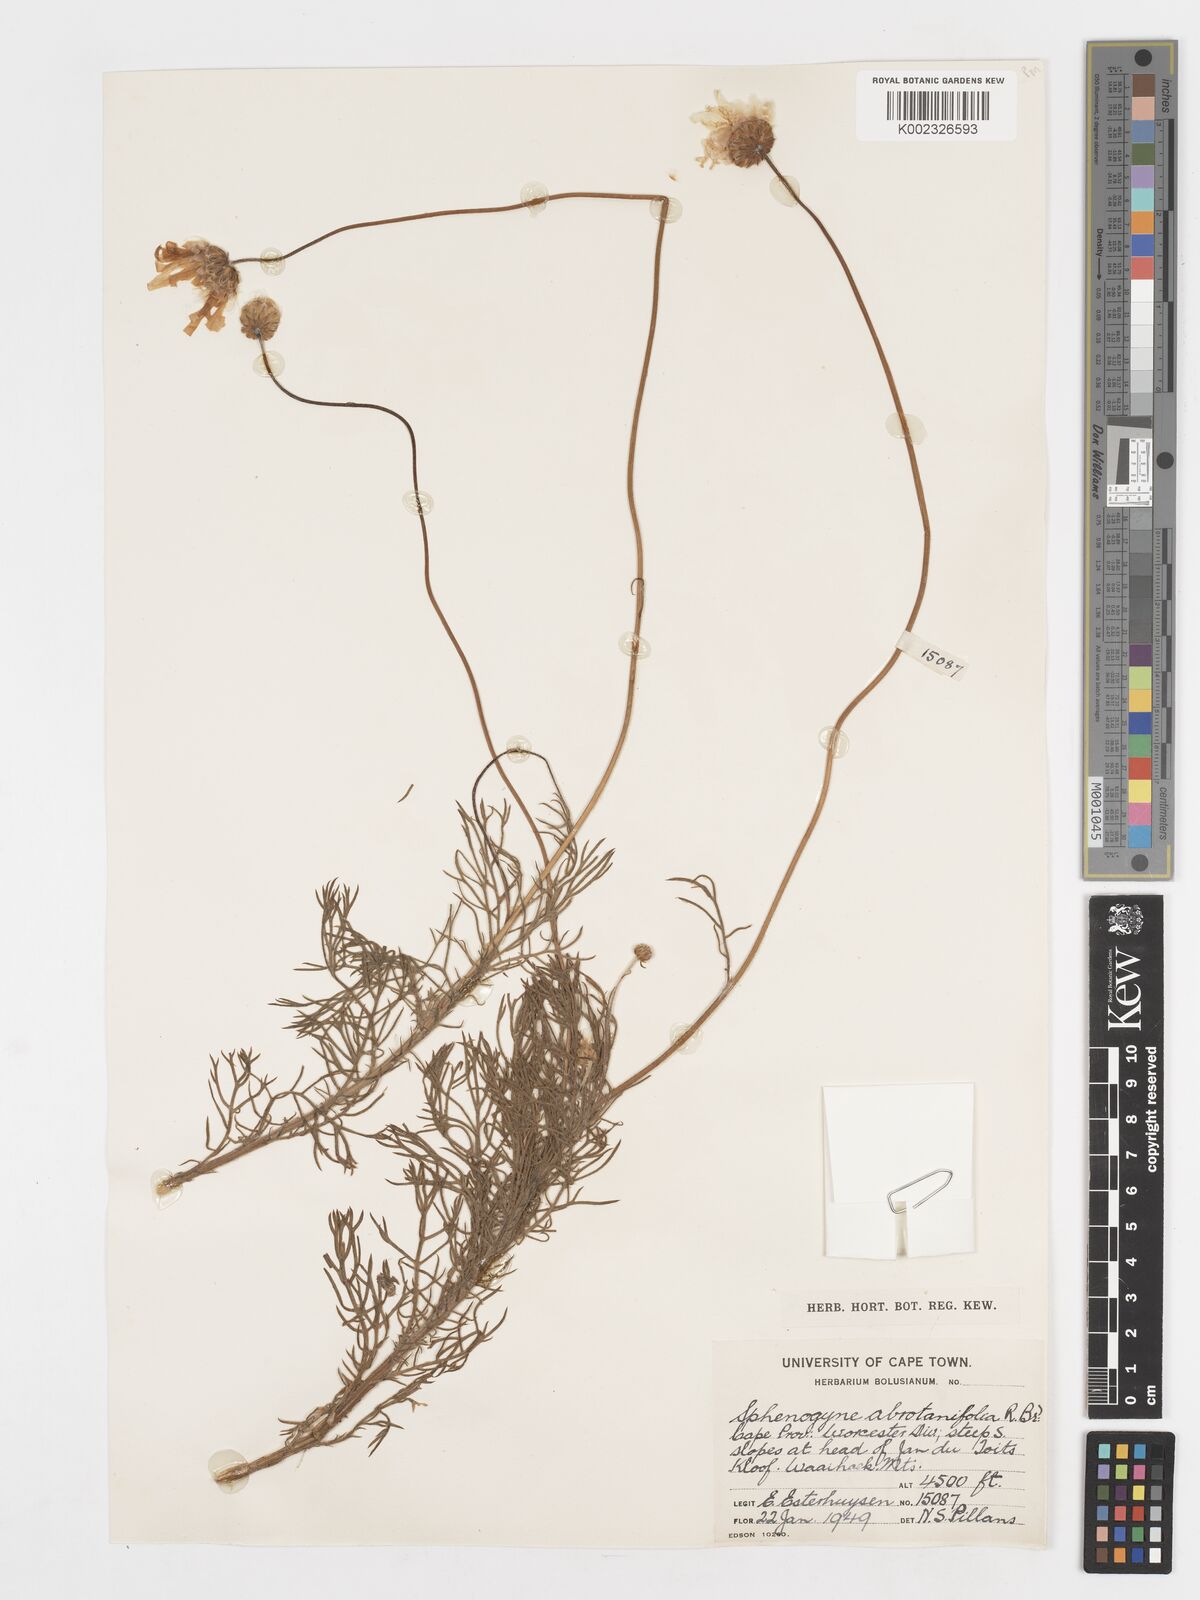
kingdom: Plantae
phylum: Tracheophyta
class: Magnoliopsida
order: Asterales
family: Asteraceae
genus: Ursinia
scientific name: Ursinia dregeana
